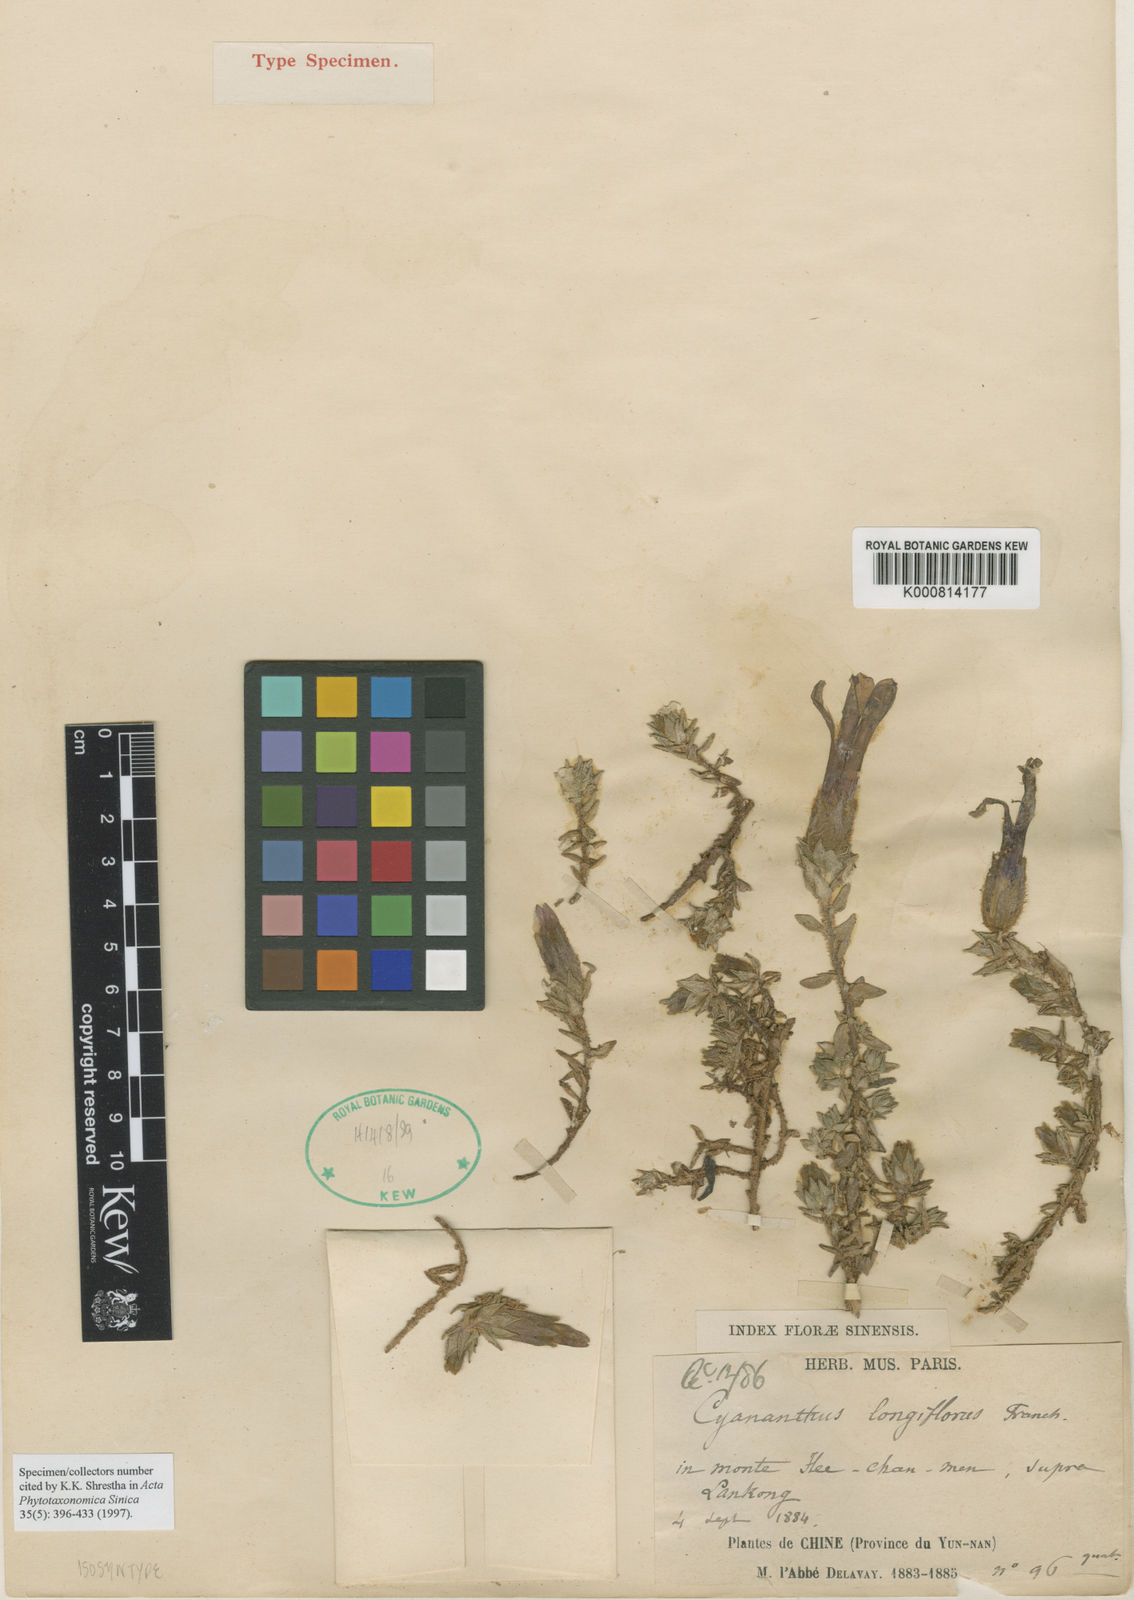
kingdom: Plantae
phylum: Tracheophyta
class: Magnoliopsida
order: Asterales
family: Campanulaceae
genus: Cyananthus
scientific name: Cyananthus longiflorus
